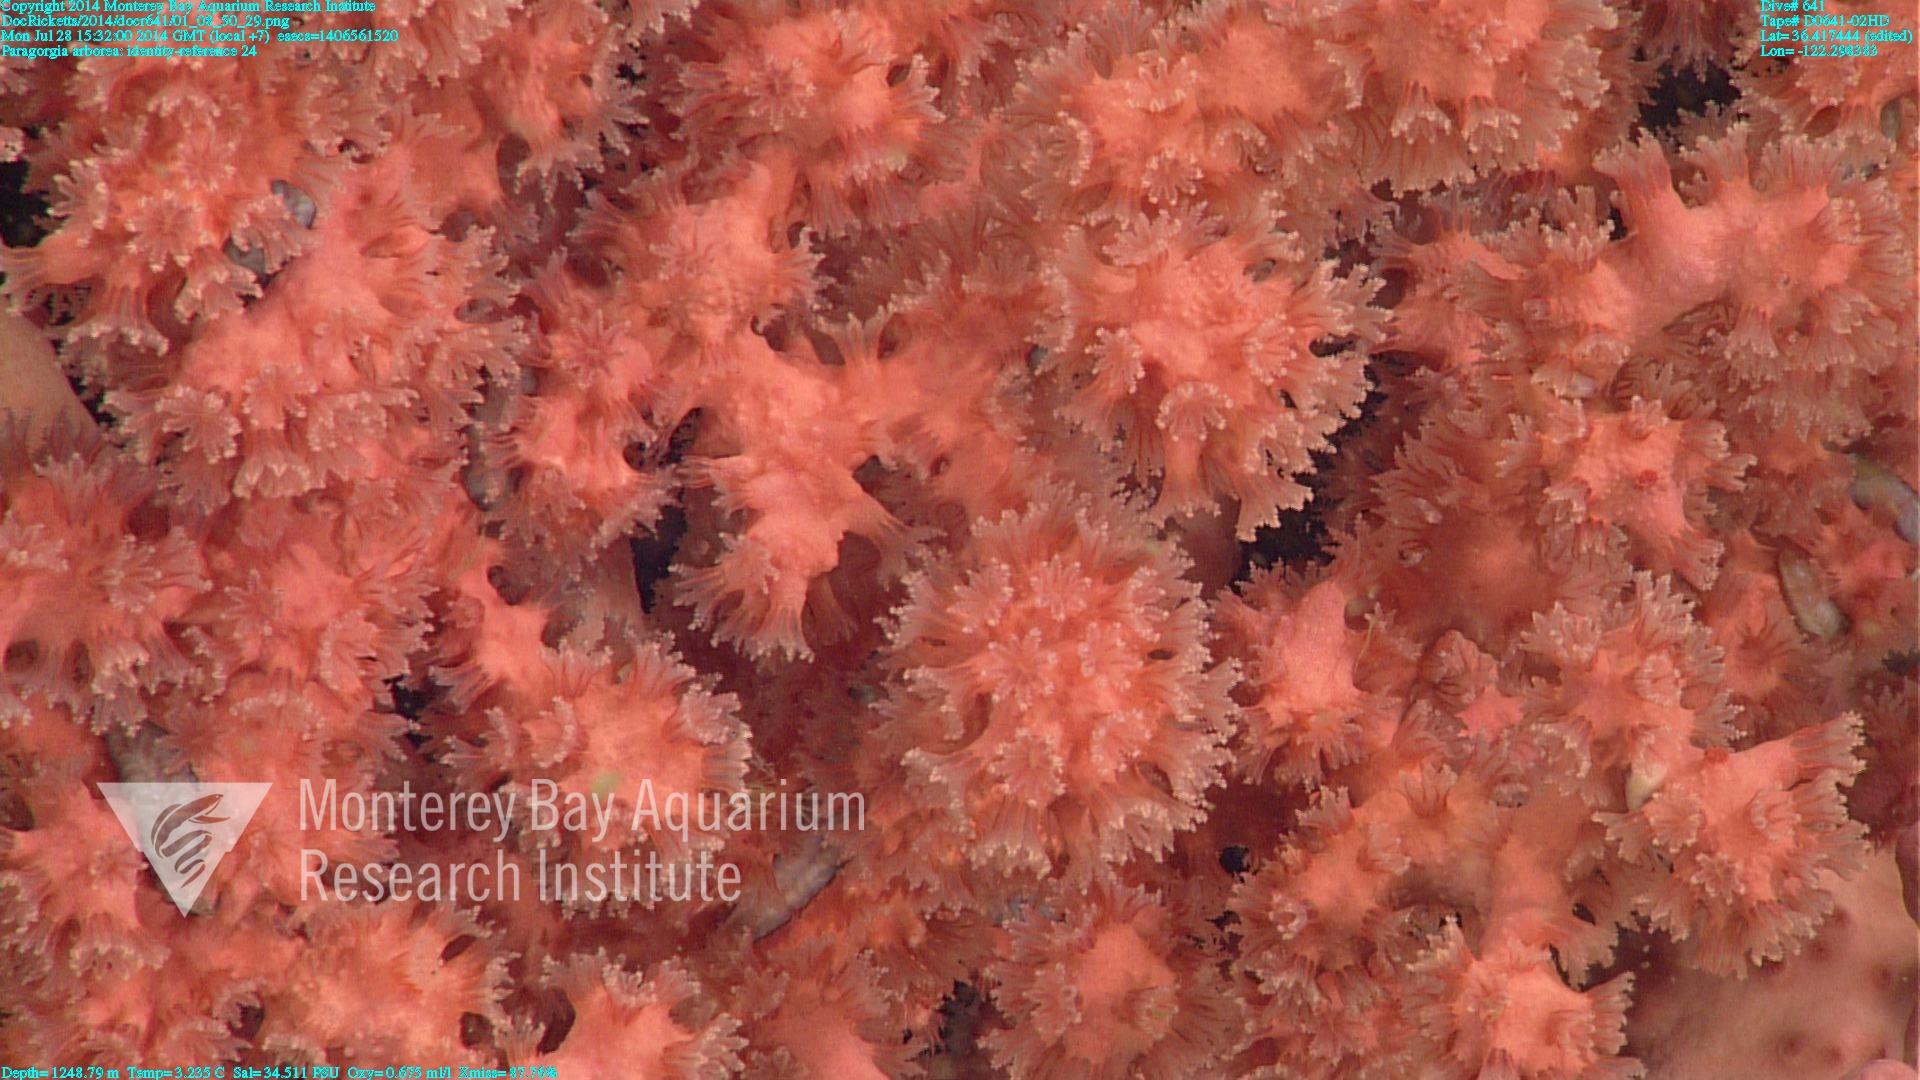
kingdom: Animalia
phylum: Cnidaria
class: Anthozoa
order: Scleralcyonacea
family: Coralliidae
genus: Paragorgia
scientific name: Paragorgia arborea
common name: Bubble gum coral
